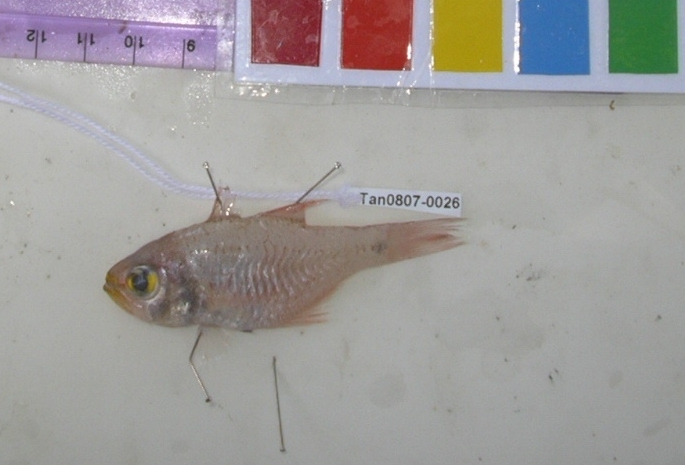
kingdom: Animalia
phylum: Chordata
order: Perciformes
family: Apogonidae
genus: Archamia
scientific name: Archamia
